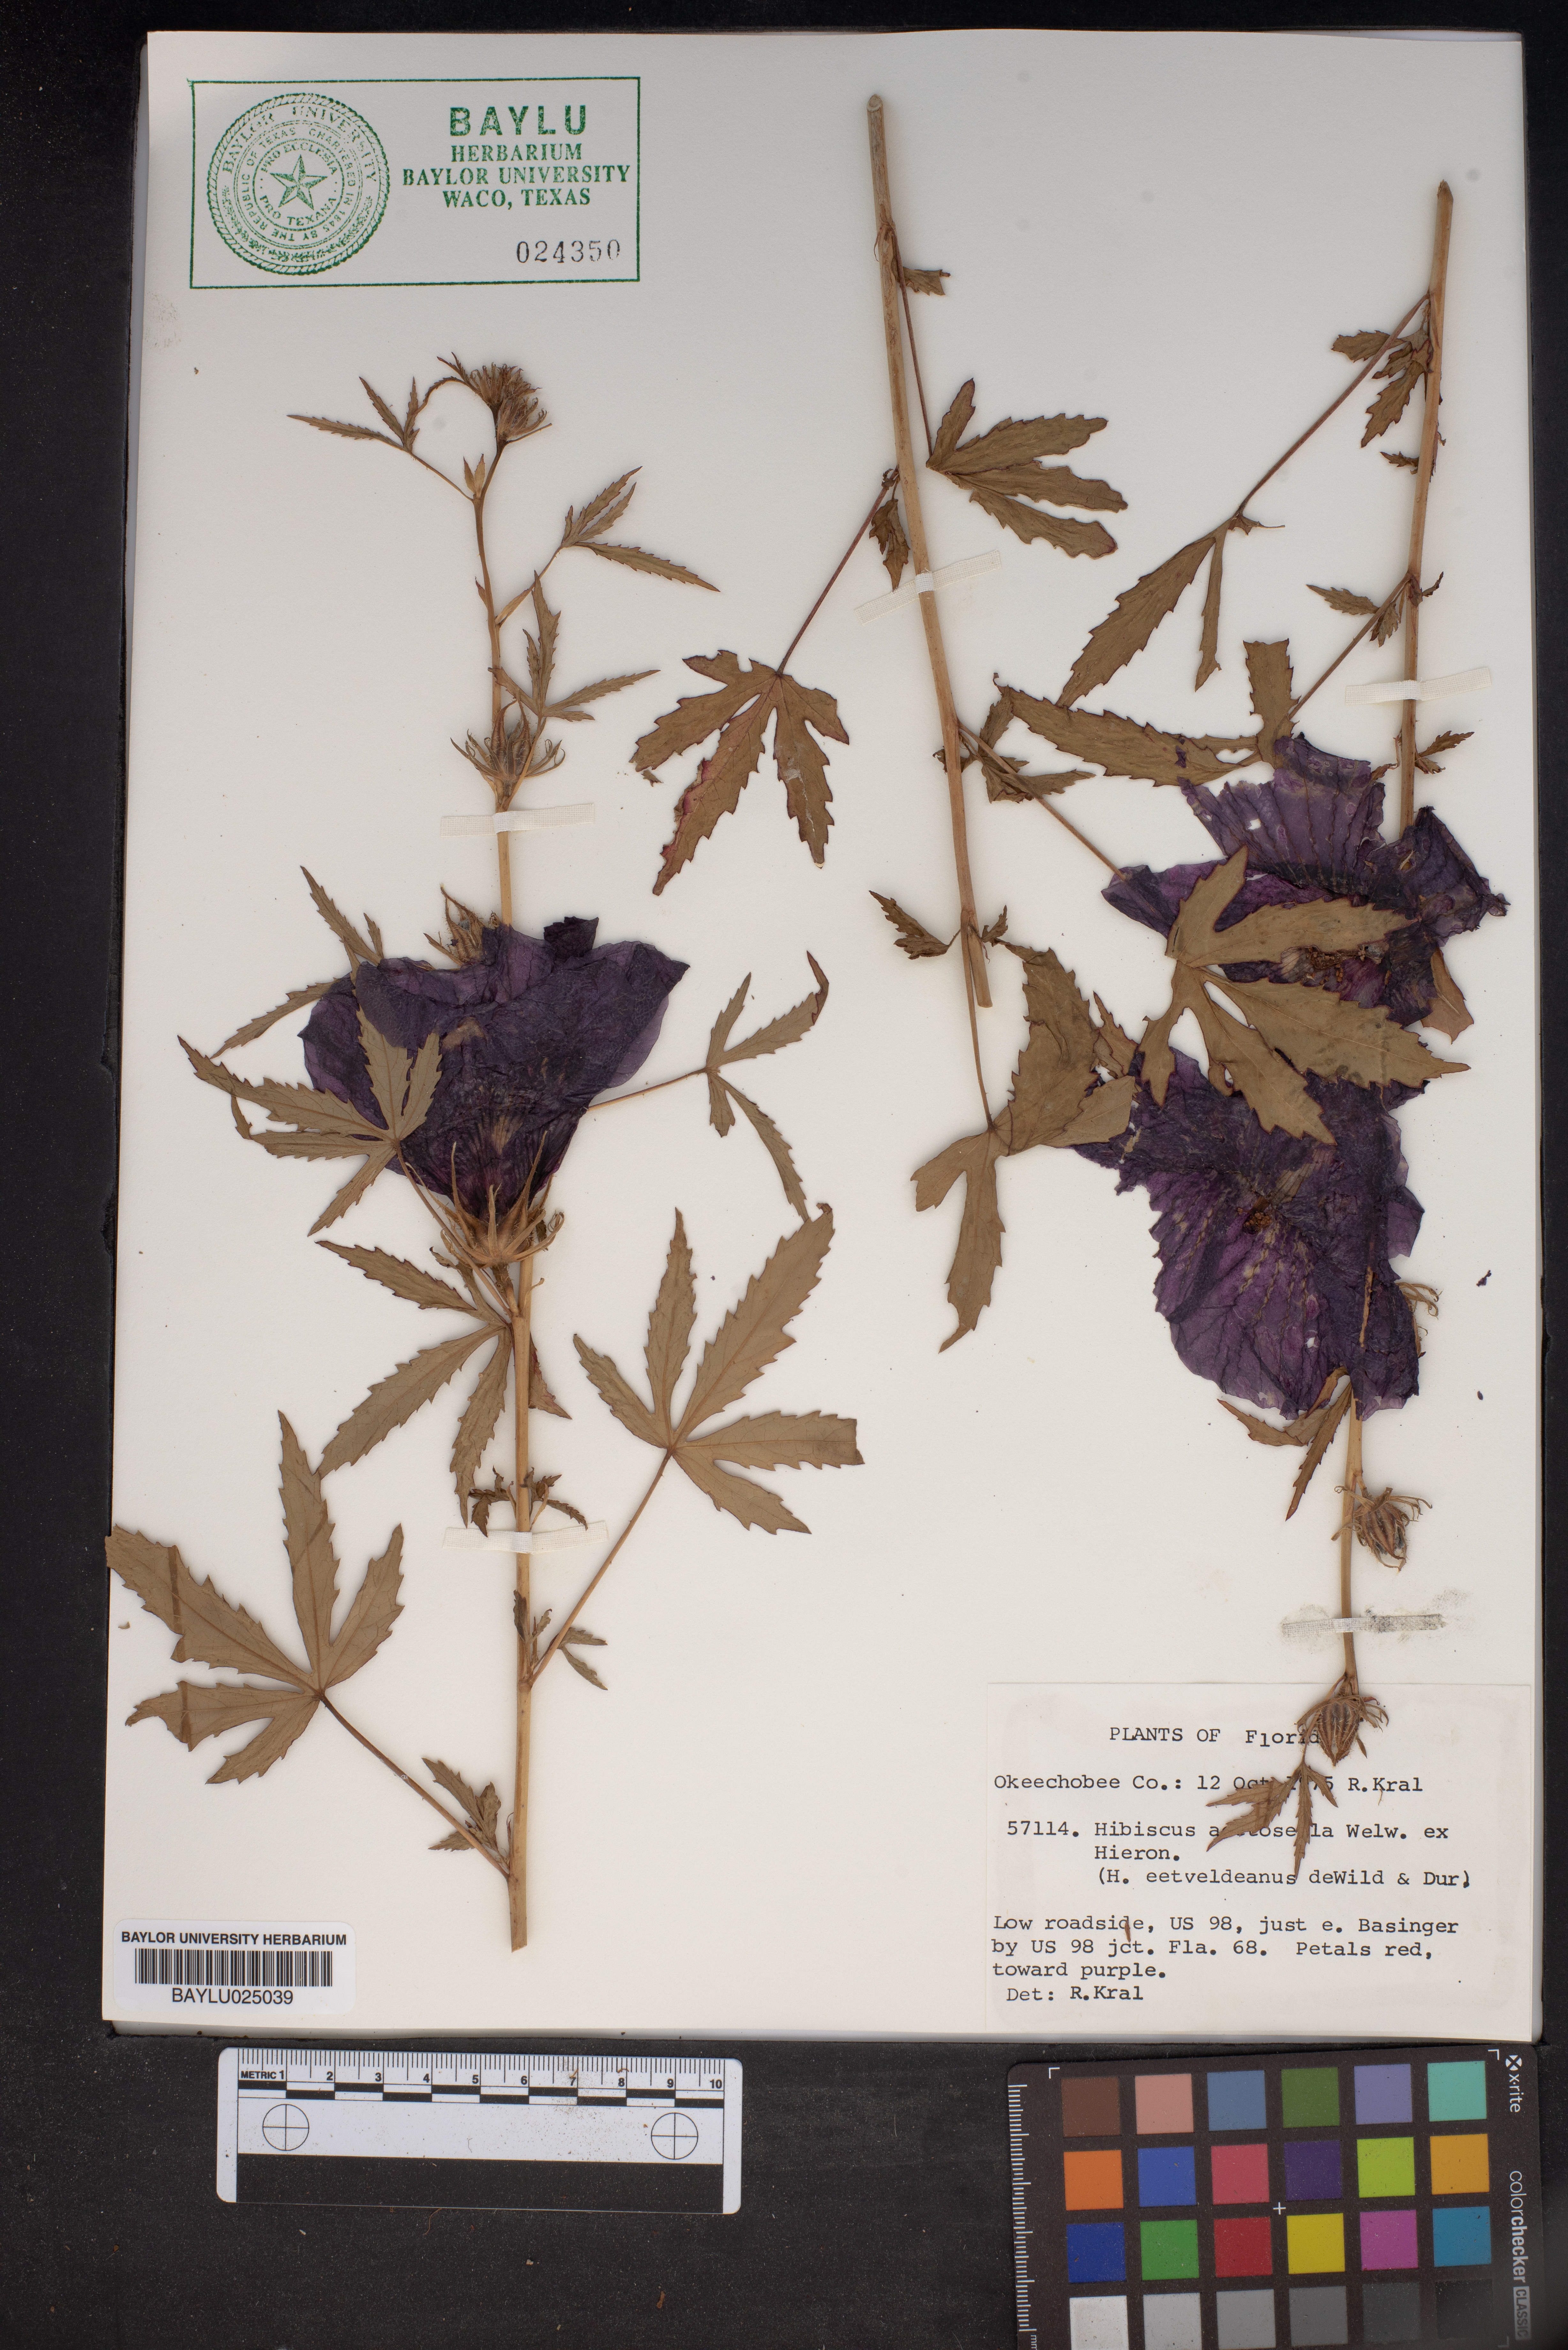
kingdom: Plantae
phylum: Tracheophyta
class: Magnoliopsida
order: Malvales
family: Malvaceae
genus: Hibiscus
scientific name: Hibiscus acetosella
